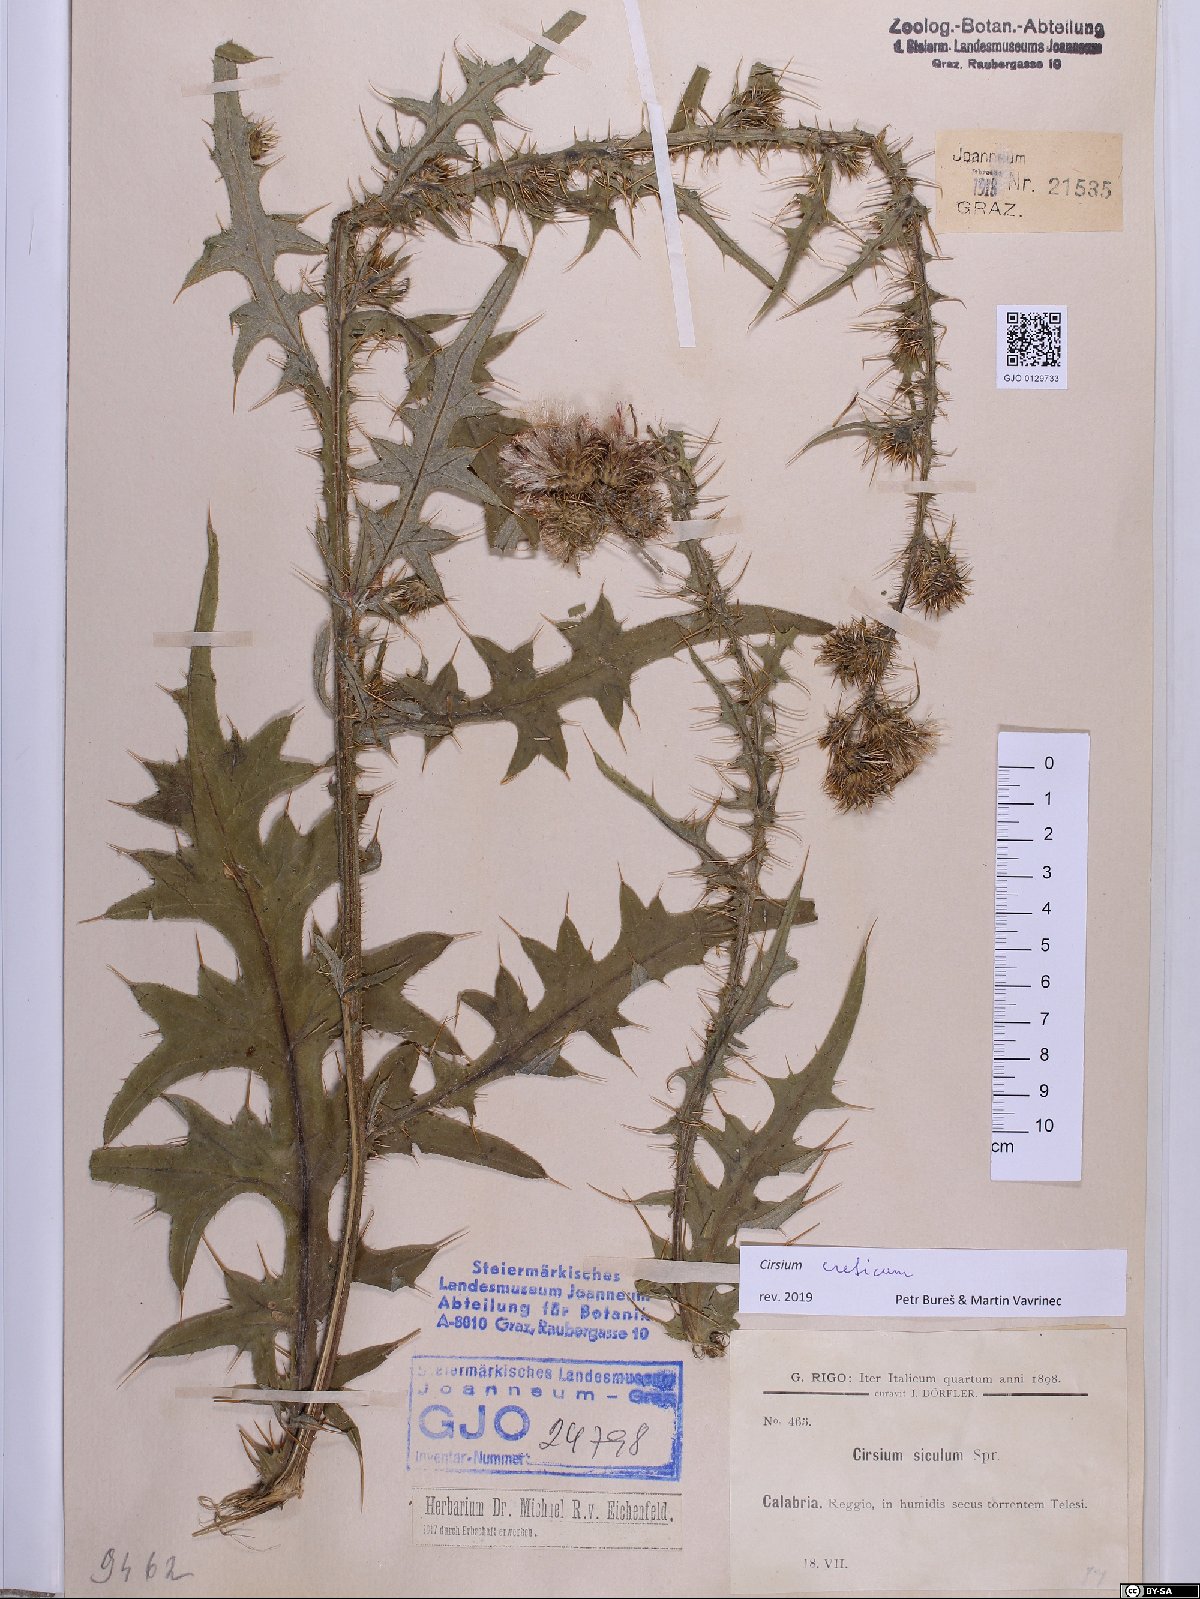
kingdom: Plantae
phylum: Tracheophyta
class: Magnoliopsida
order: Asterales
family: Asteraceae
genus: Cirsium
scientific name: Cirsium creticum
